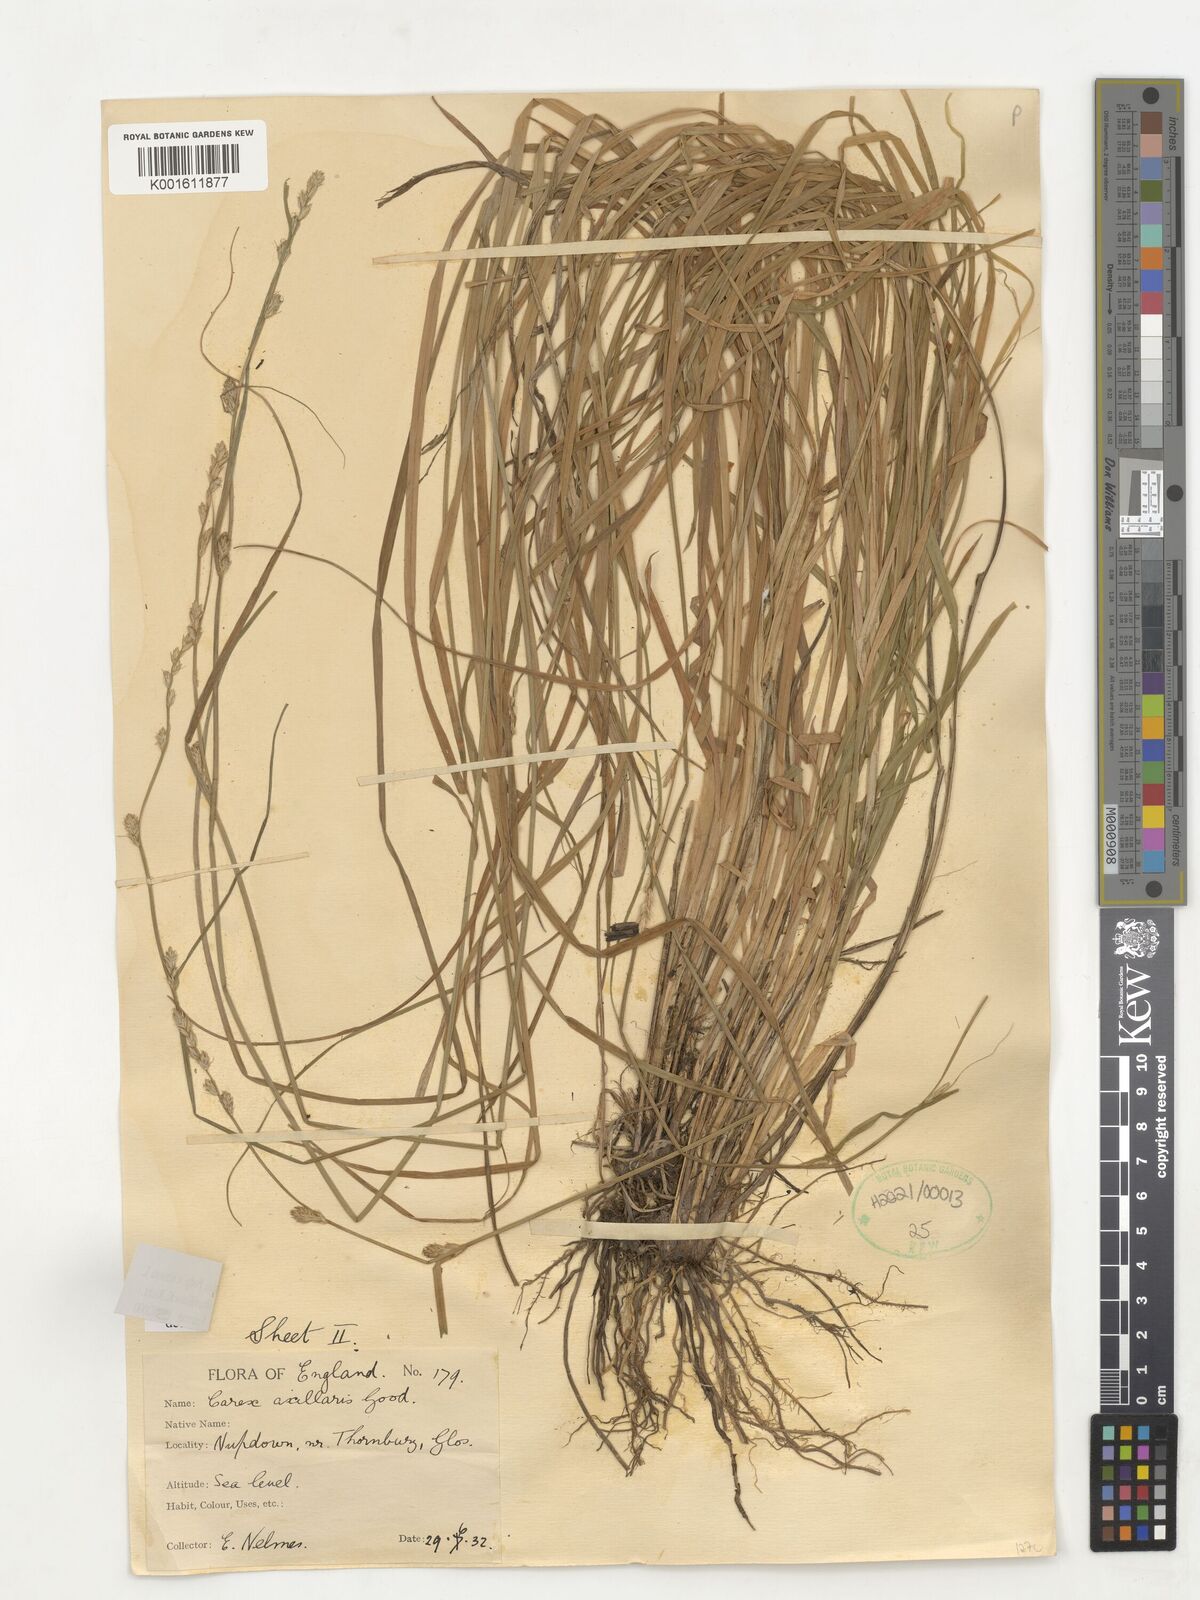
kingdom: Plantae
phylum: Tracheophyta
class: Liliopsida
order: Poales
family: Cyperaceae
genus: Carex
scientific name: Carex pseudoaxillaris
